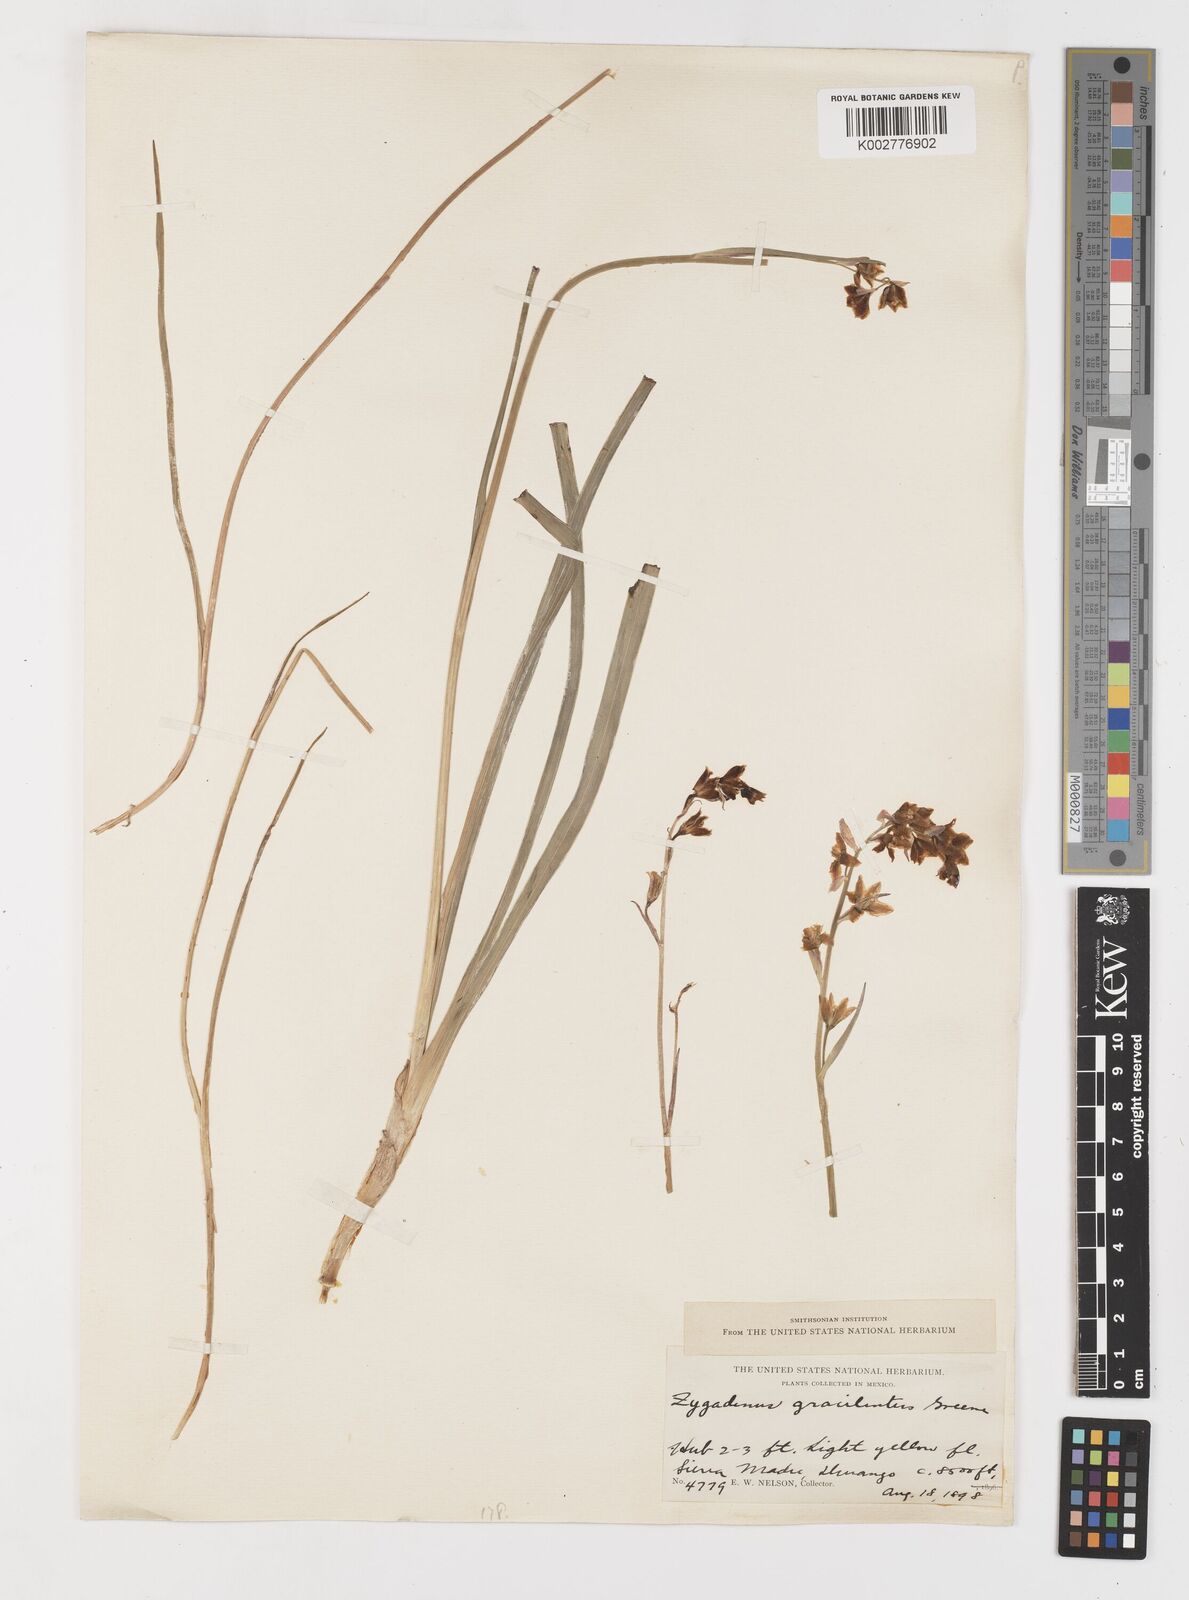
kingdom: Plantae
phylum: Tracheophyta
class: Liliopsida
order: Liliales
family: Melanthiaceae
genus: Anticlea
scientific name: Anticlea virescens
